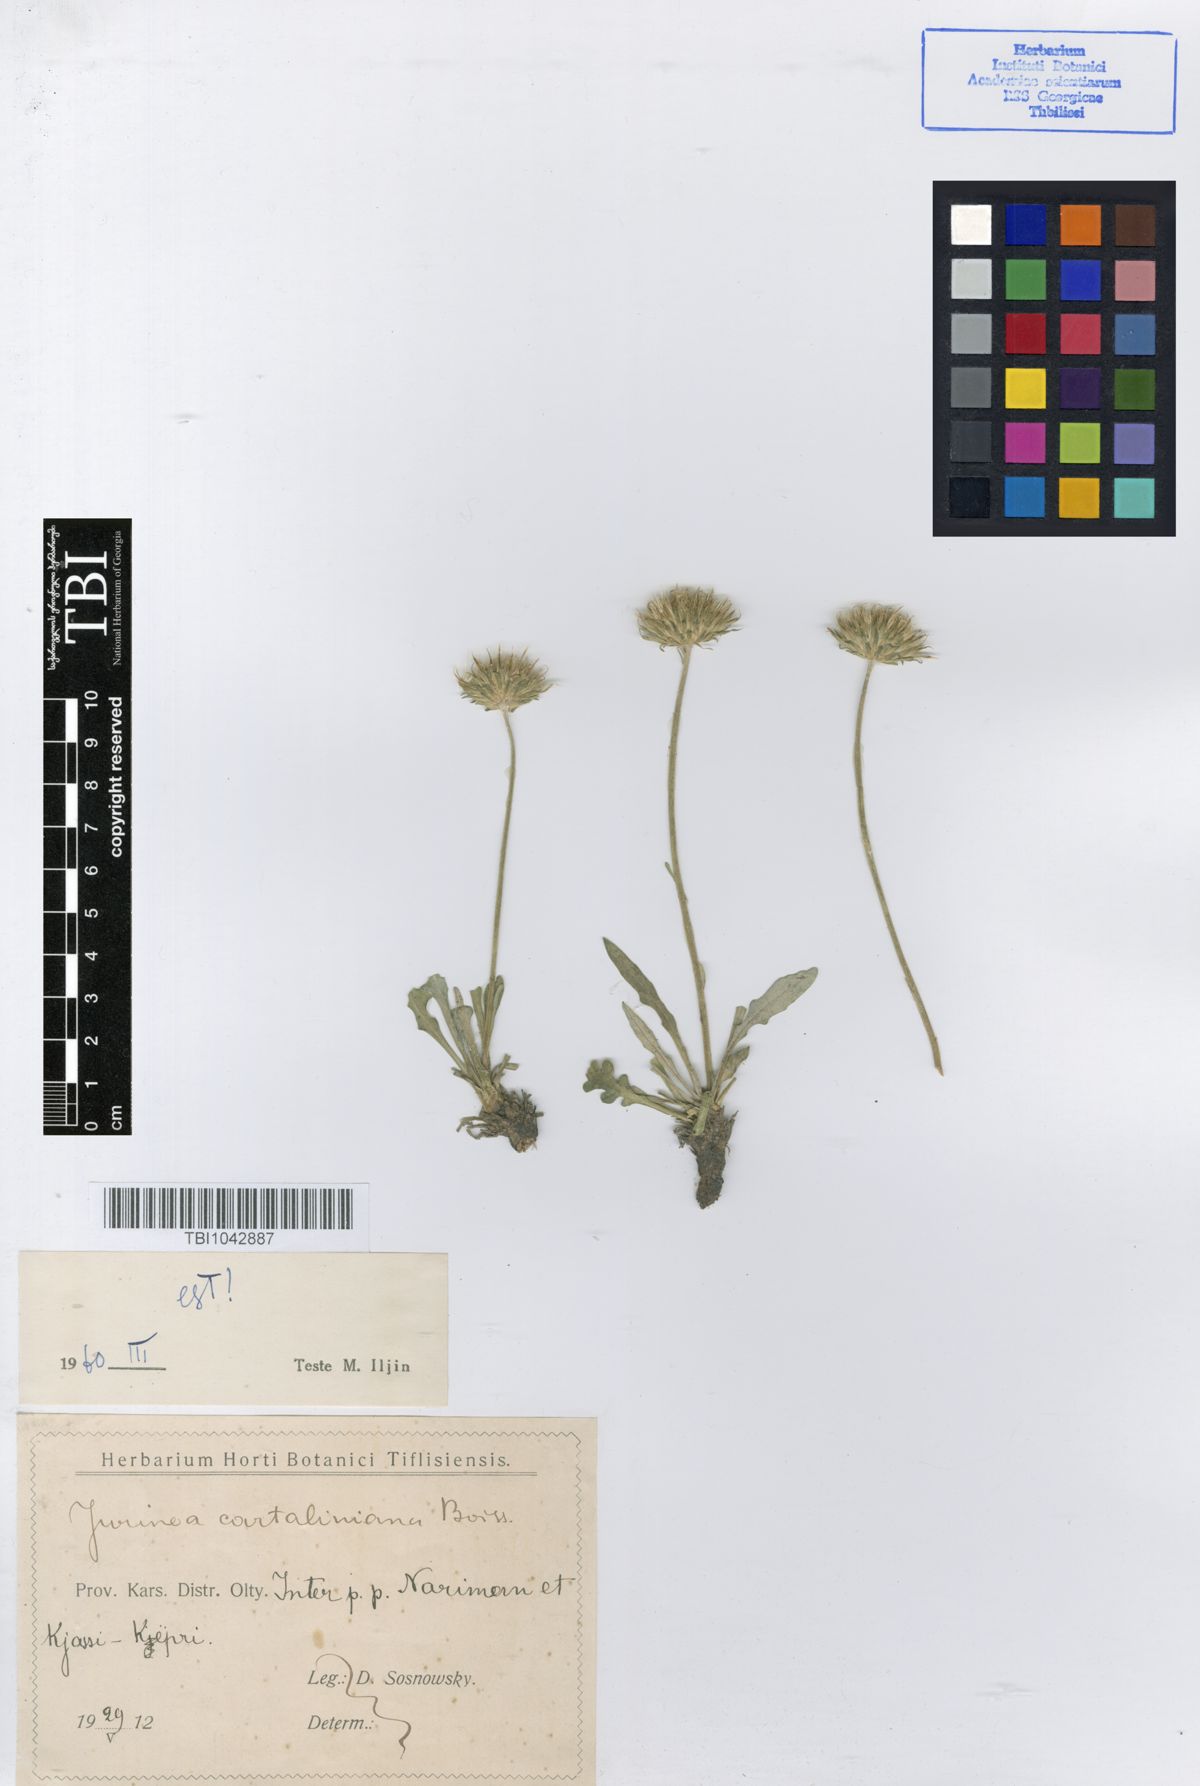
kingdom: Plantae
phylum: Tracheophyta
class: Magnoliopsida
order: Asterales
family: Asteraceae
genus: Jurinea
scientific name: Jurinea cartaliniana
